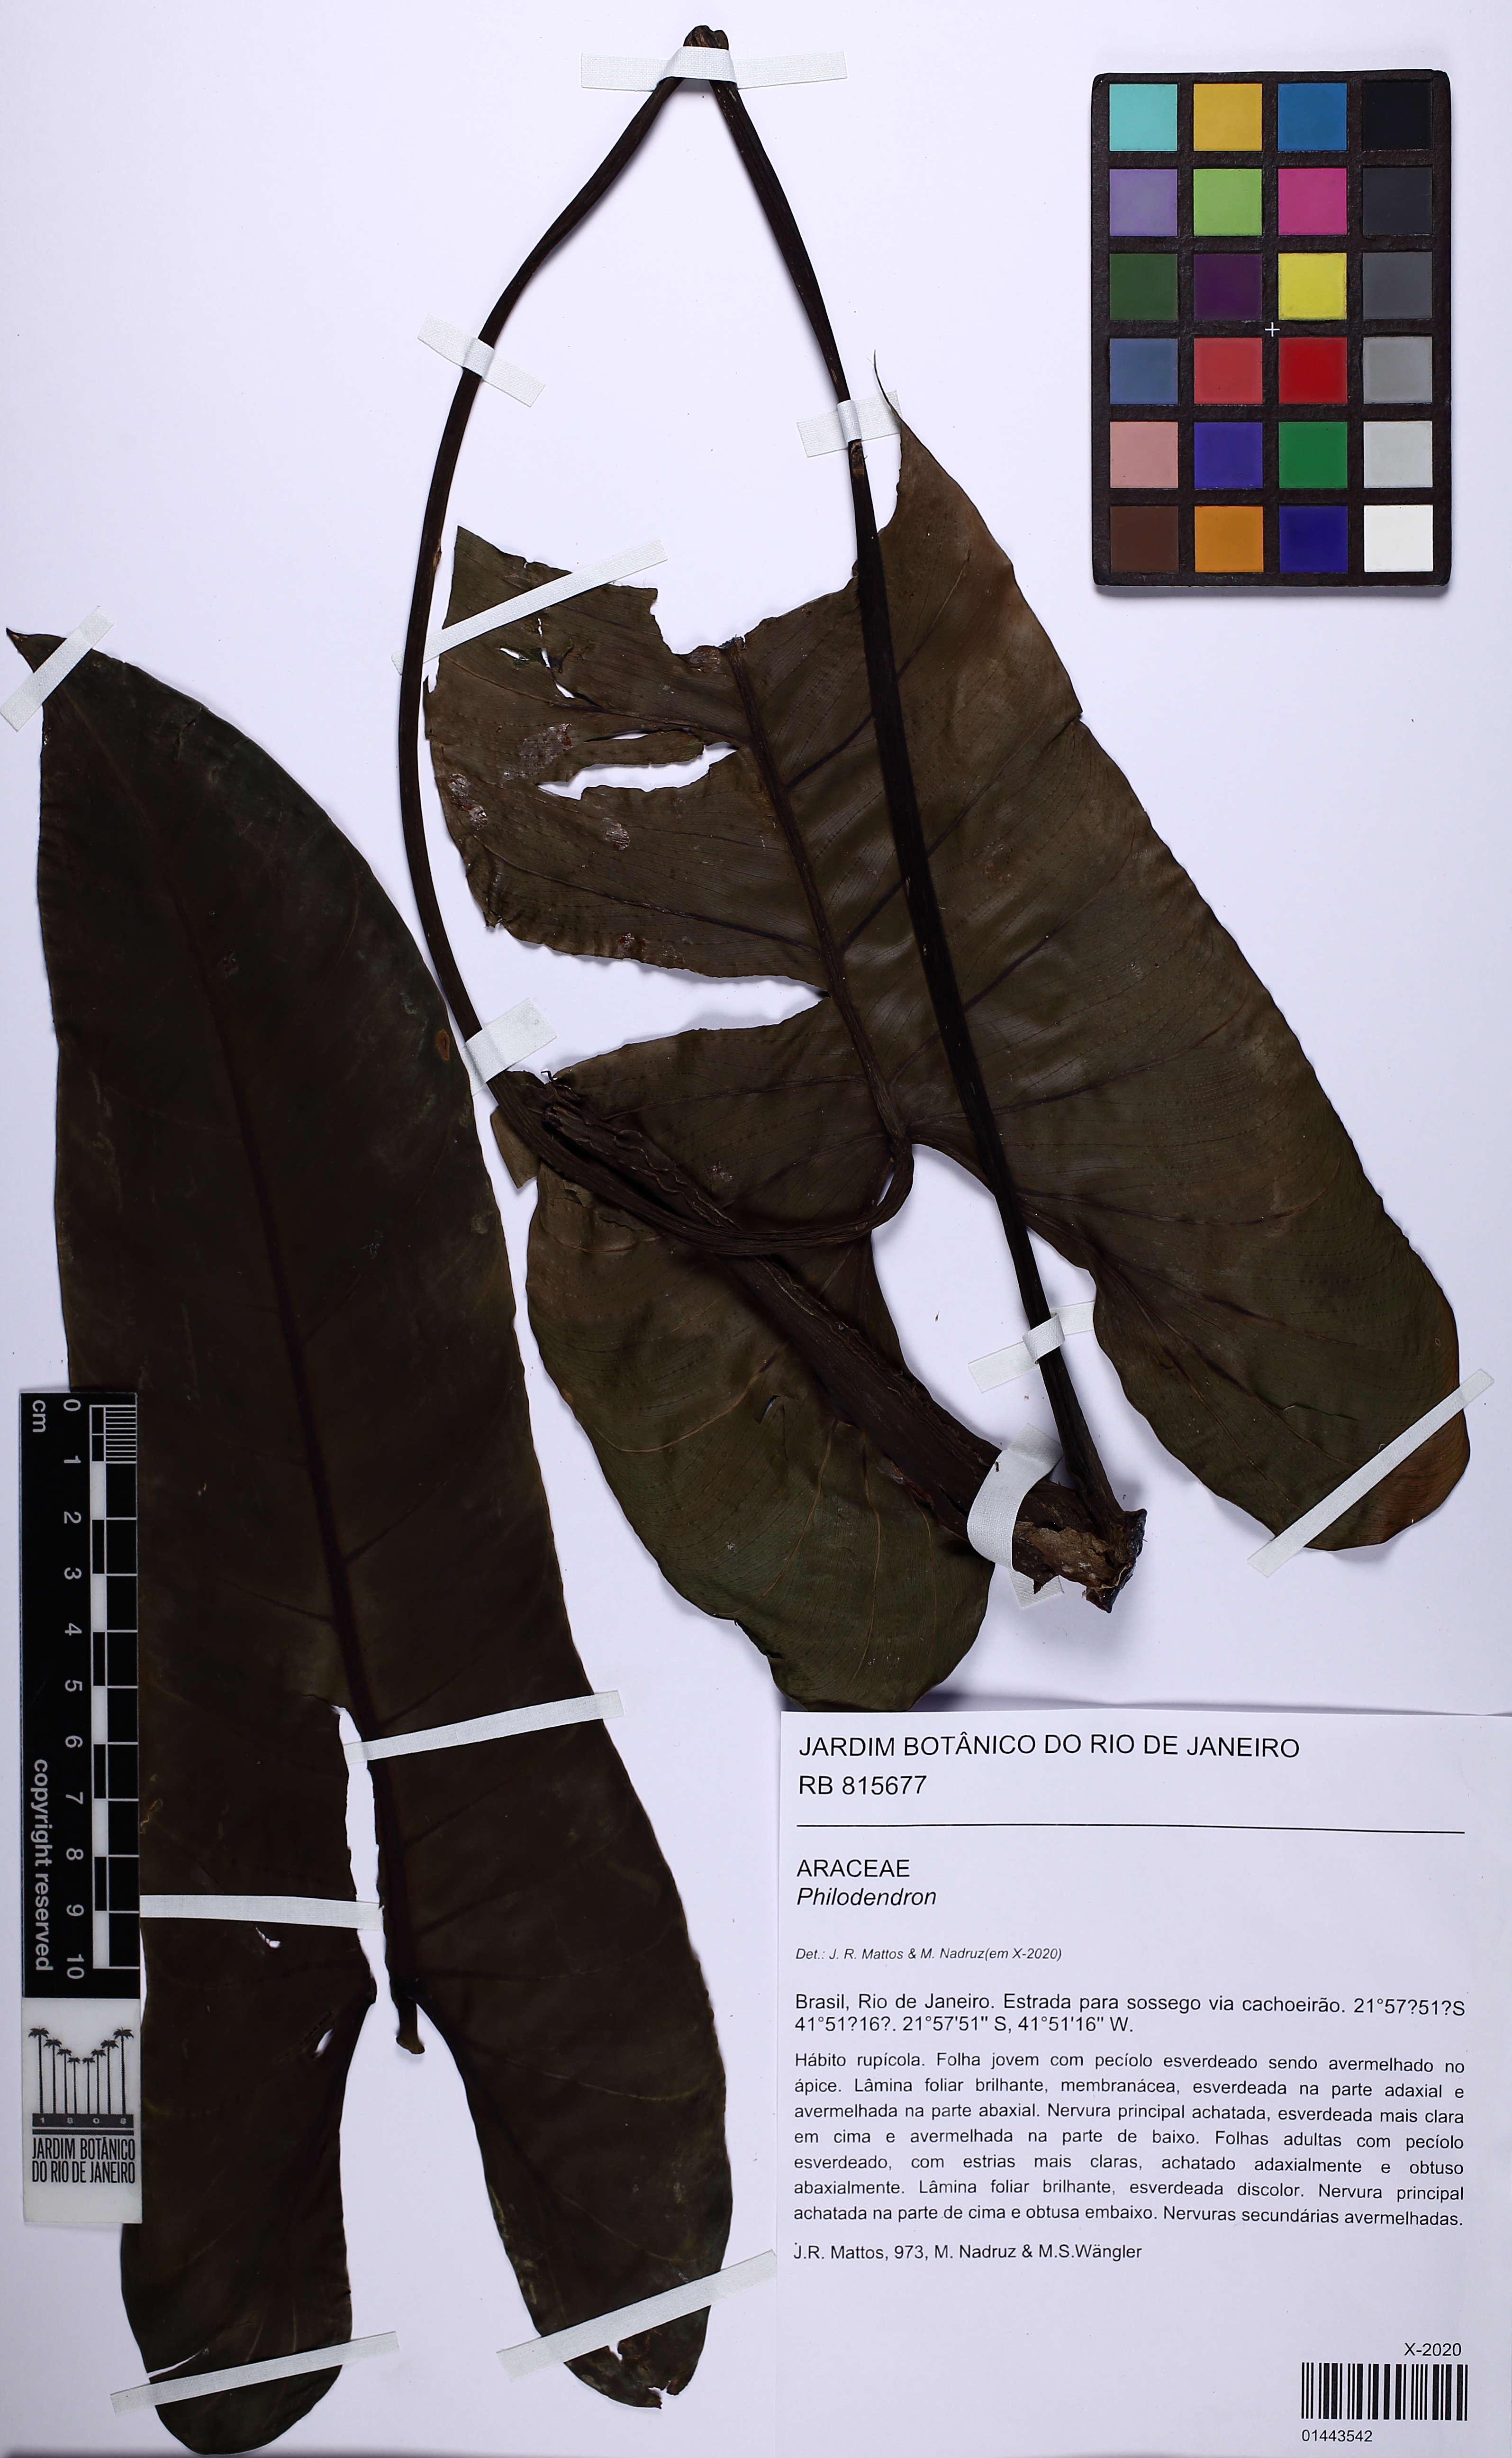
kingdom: Plantae
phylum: Tracheophyta
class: Liliopsida
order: Alismatales
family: Araceae
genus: Philodendron
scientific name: Philodendron
